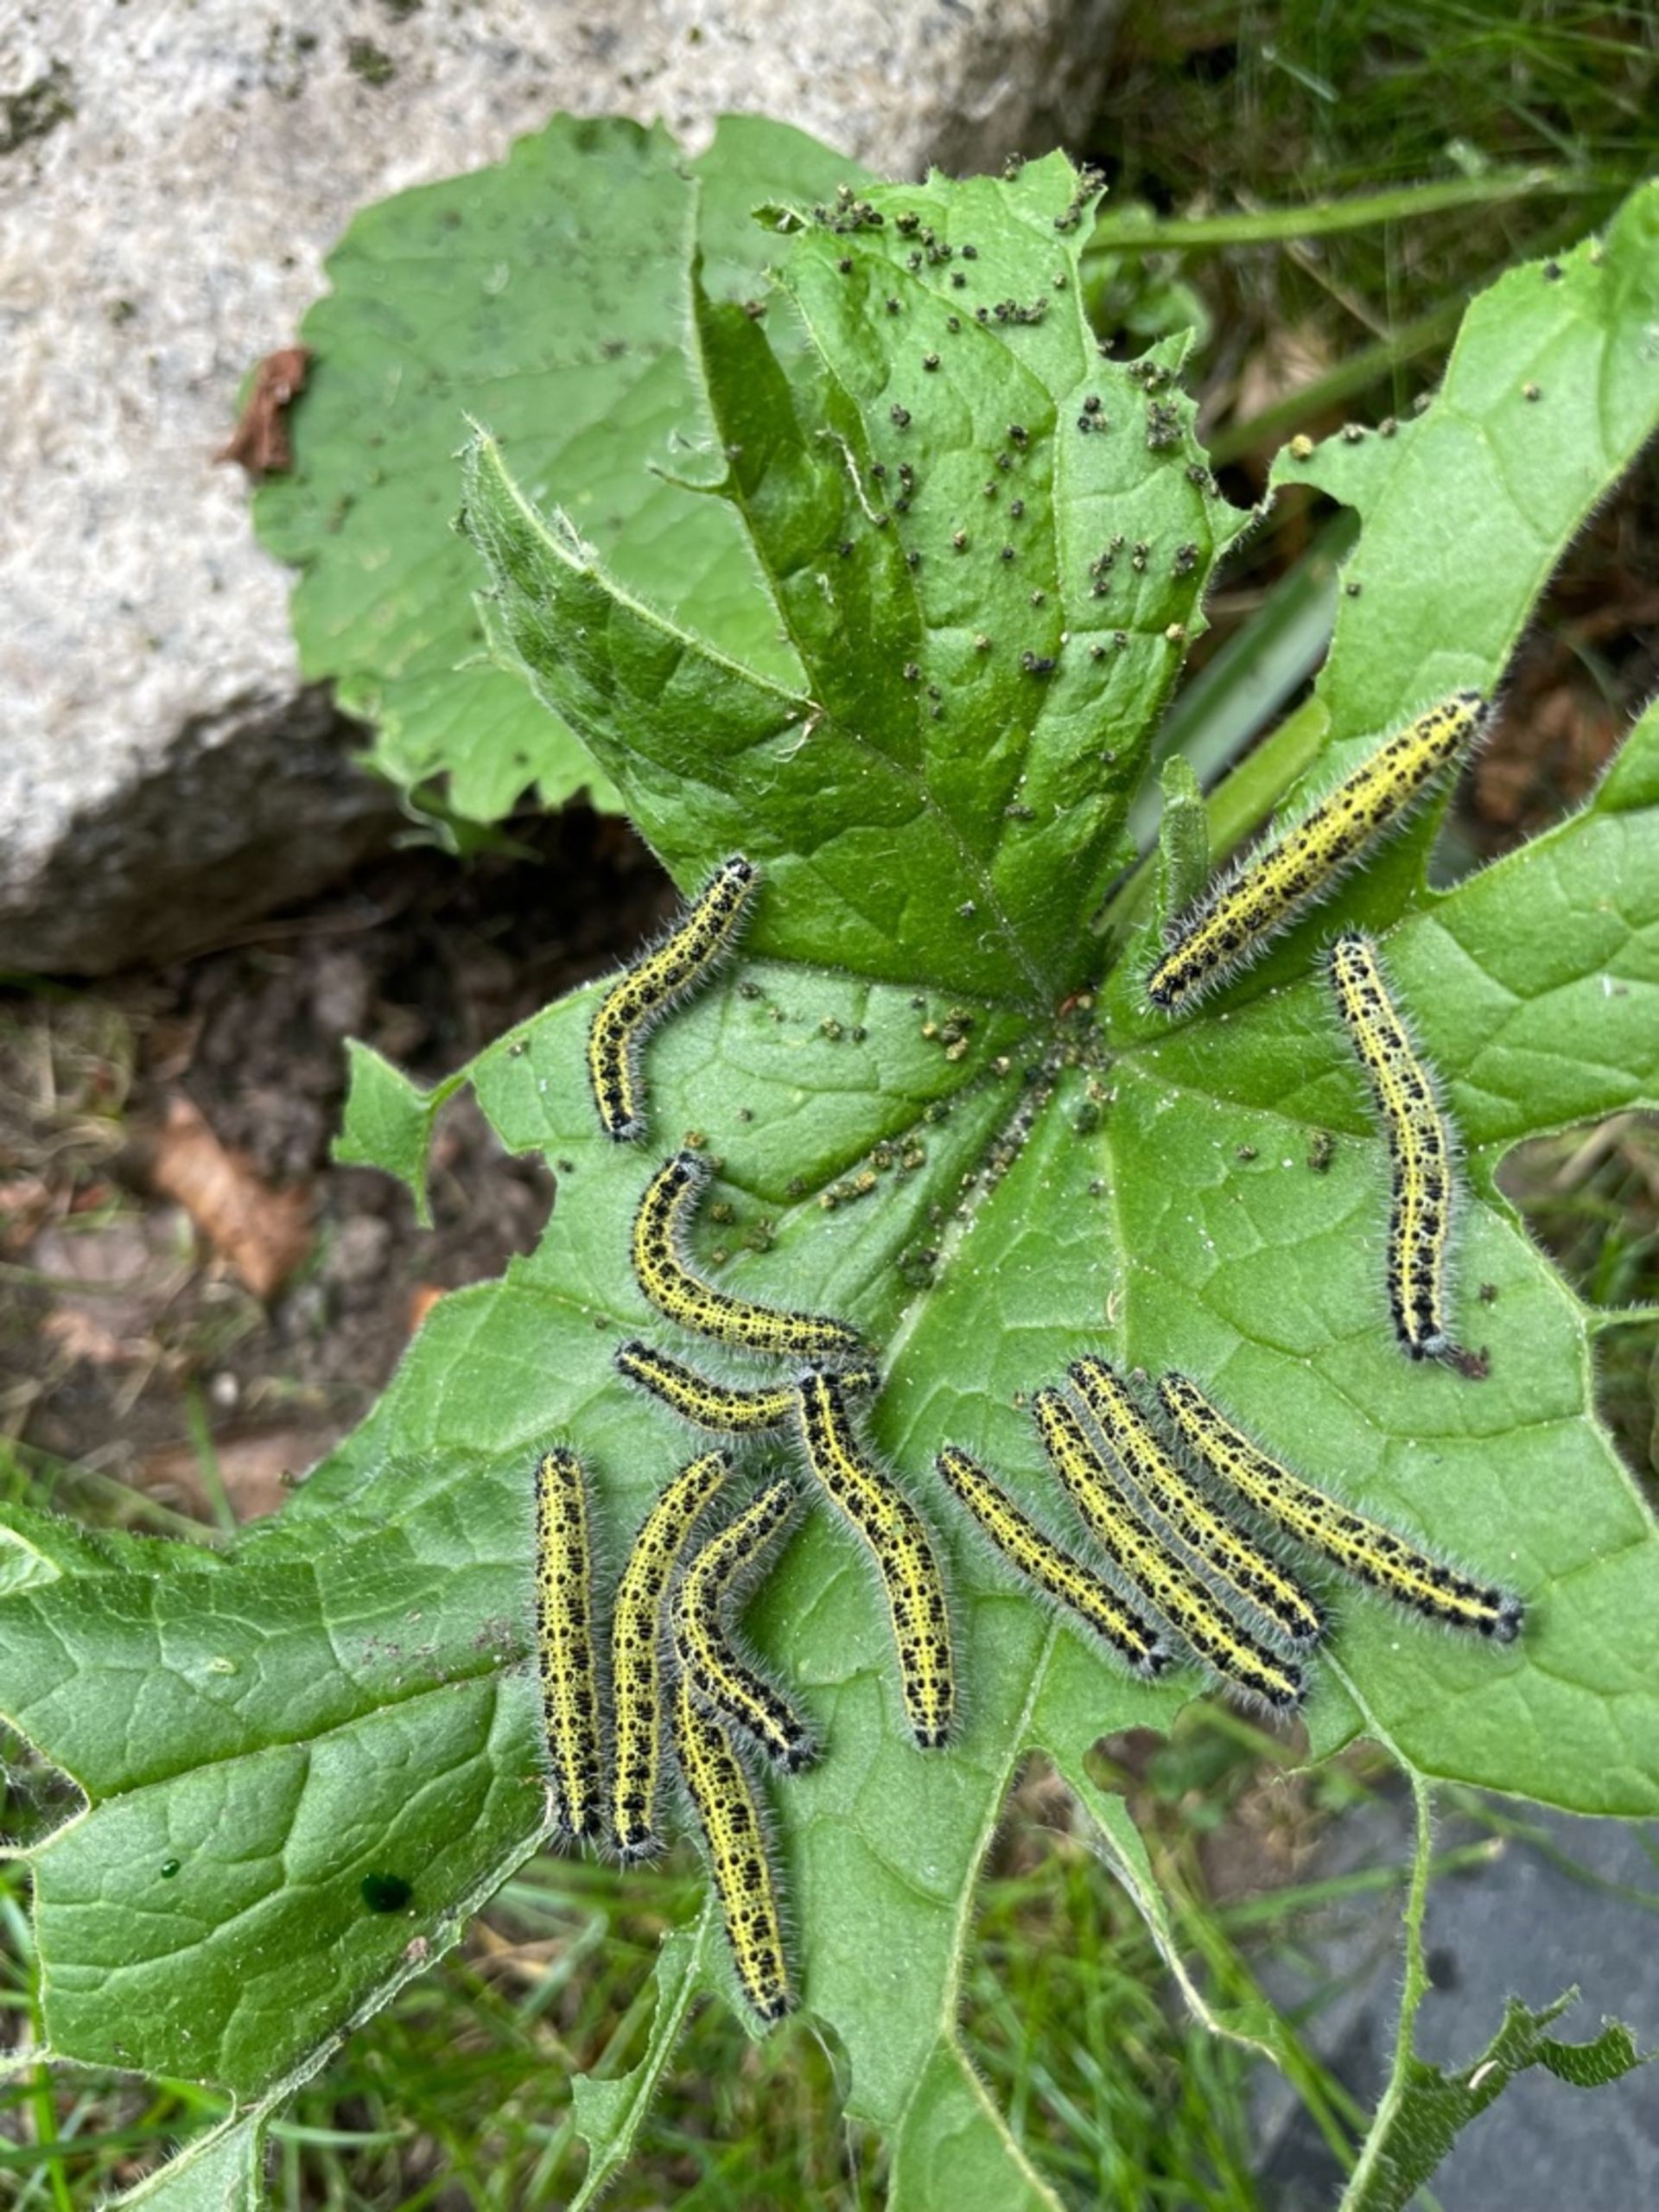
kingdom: Animalia
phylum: Arthropoda
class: Insecta
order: Lepidoptera
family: Pieridae
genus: Pieris
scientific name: Pieris brassicae
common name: Stor kålsommerfugl
